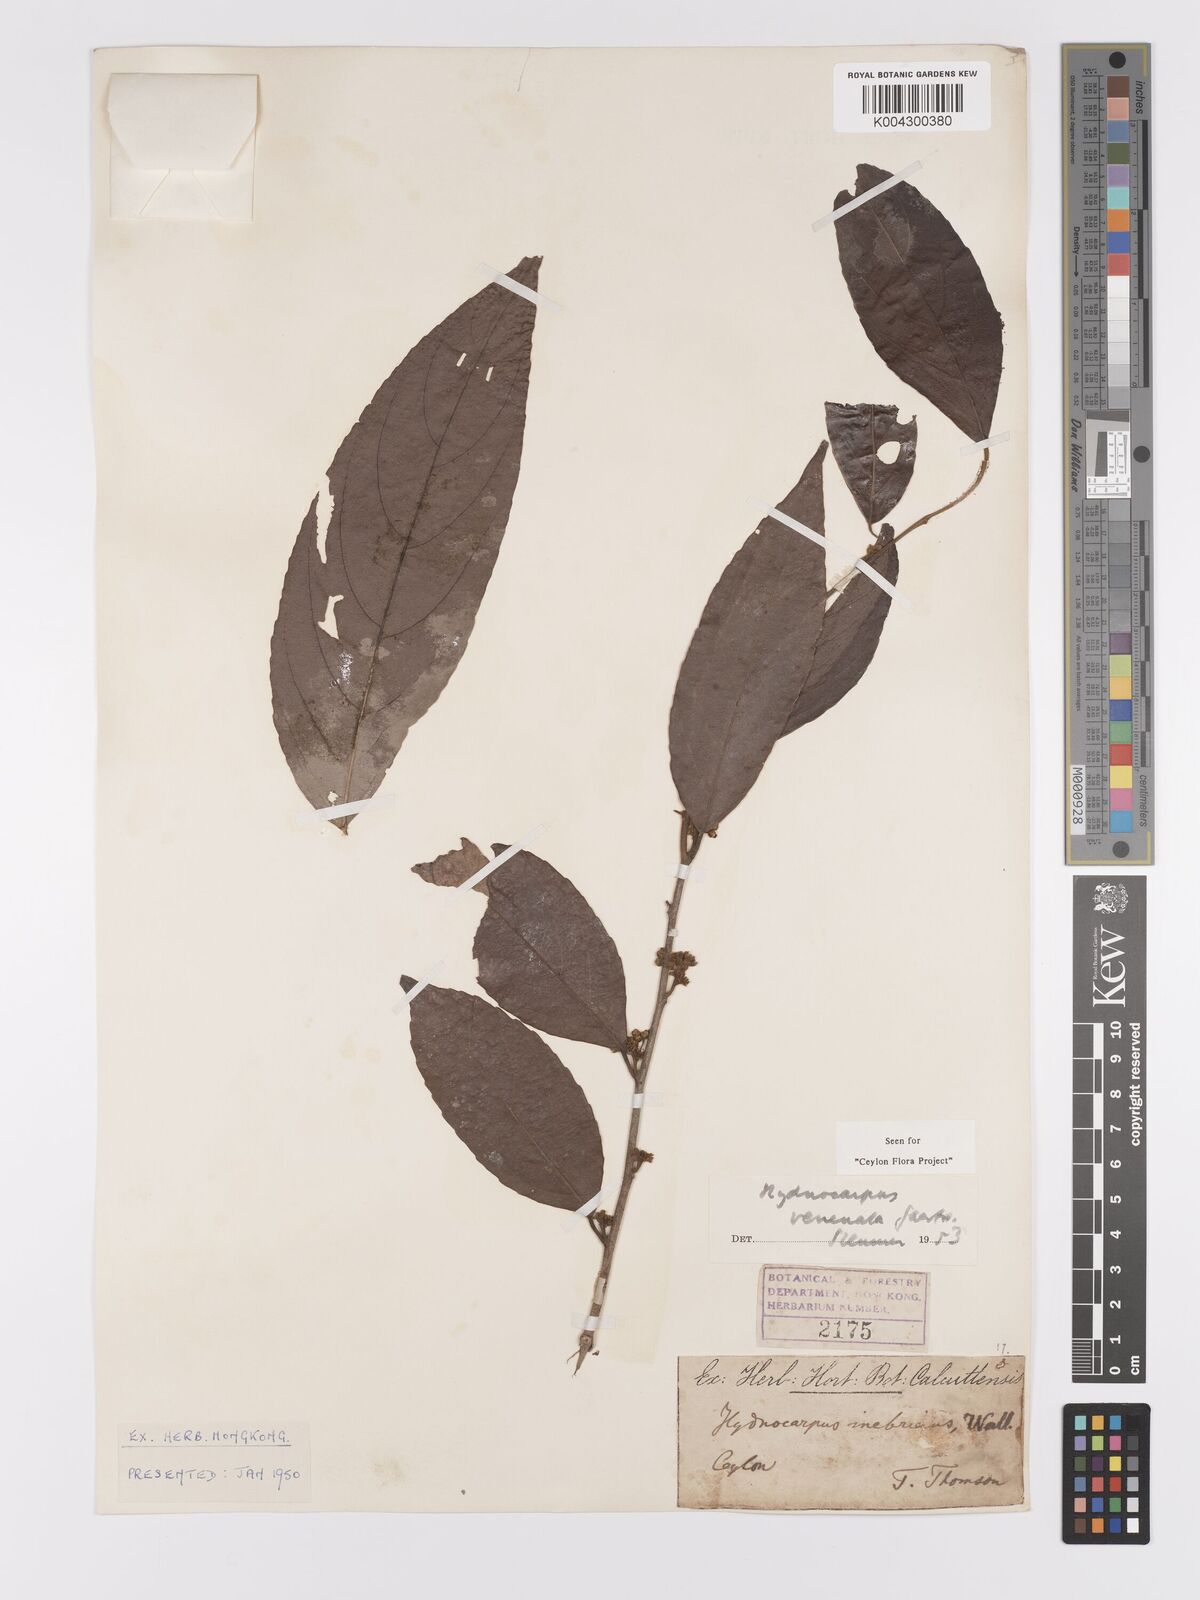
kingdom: Plantae
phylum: Tracheophyta
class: Magnoliopsida
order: Malpighiales
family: Achariaceae
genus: Hydnocarpus
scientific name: Hydnocarpus venenatus
